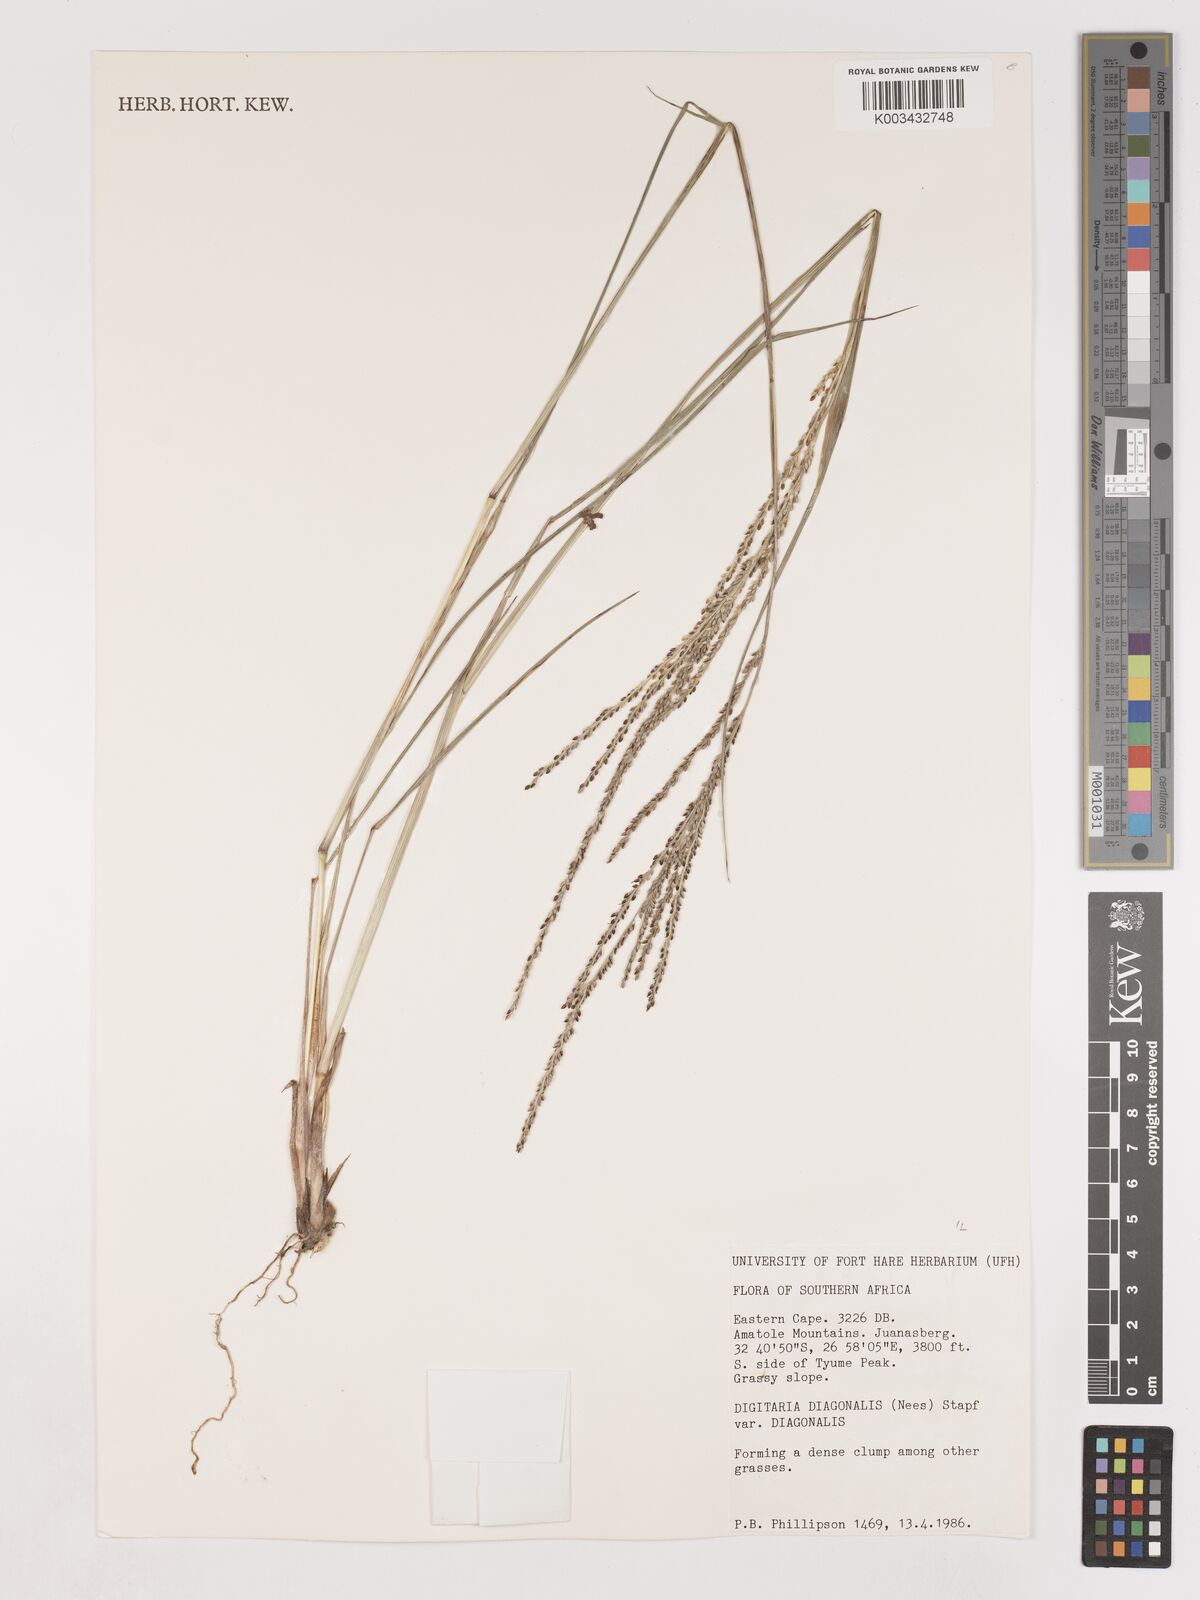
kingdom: Plantae
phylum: Tracheophyta
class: Liliopsida
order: Poales
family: Poaceae
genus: Digitaria
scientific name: Digitaria diagonalis
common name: Brown-seed finger grass
